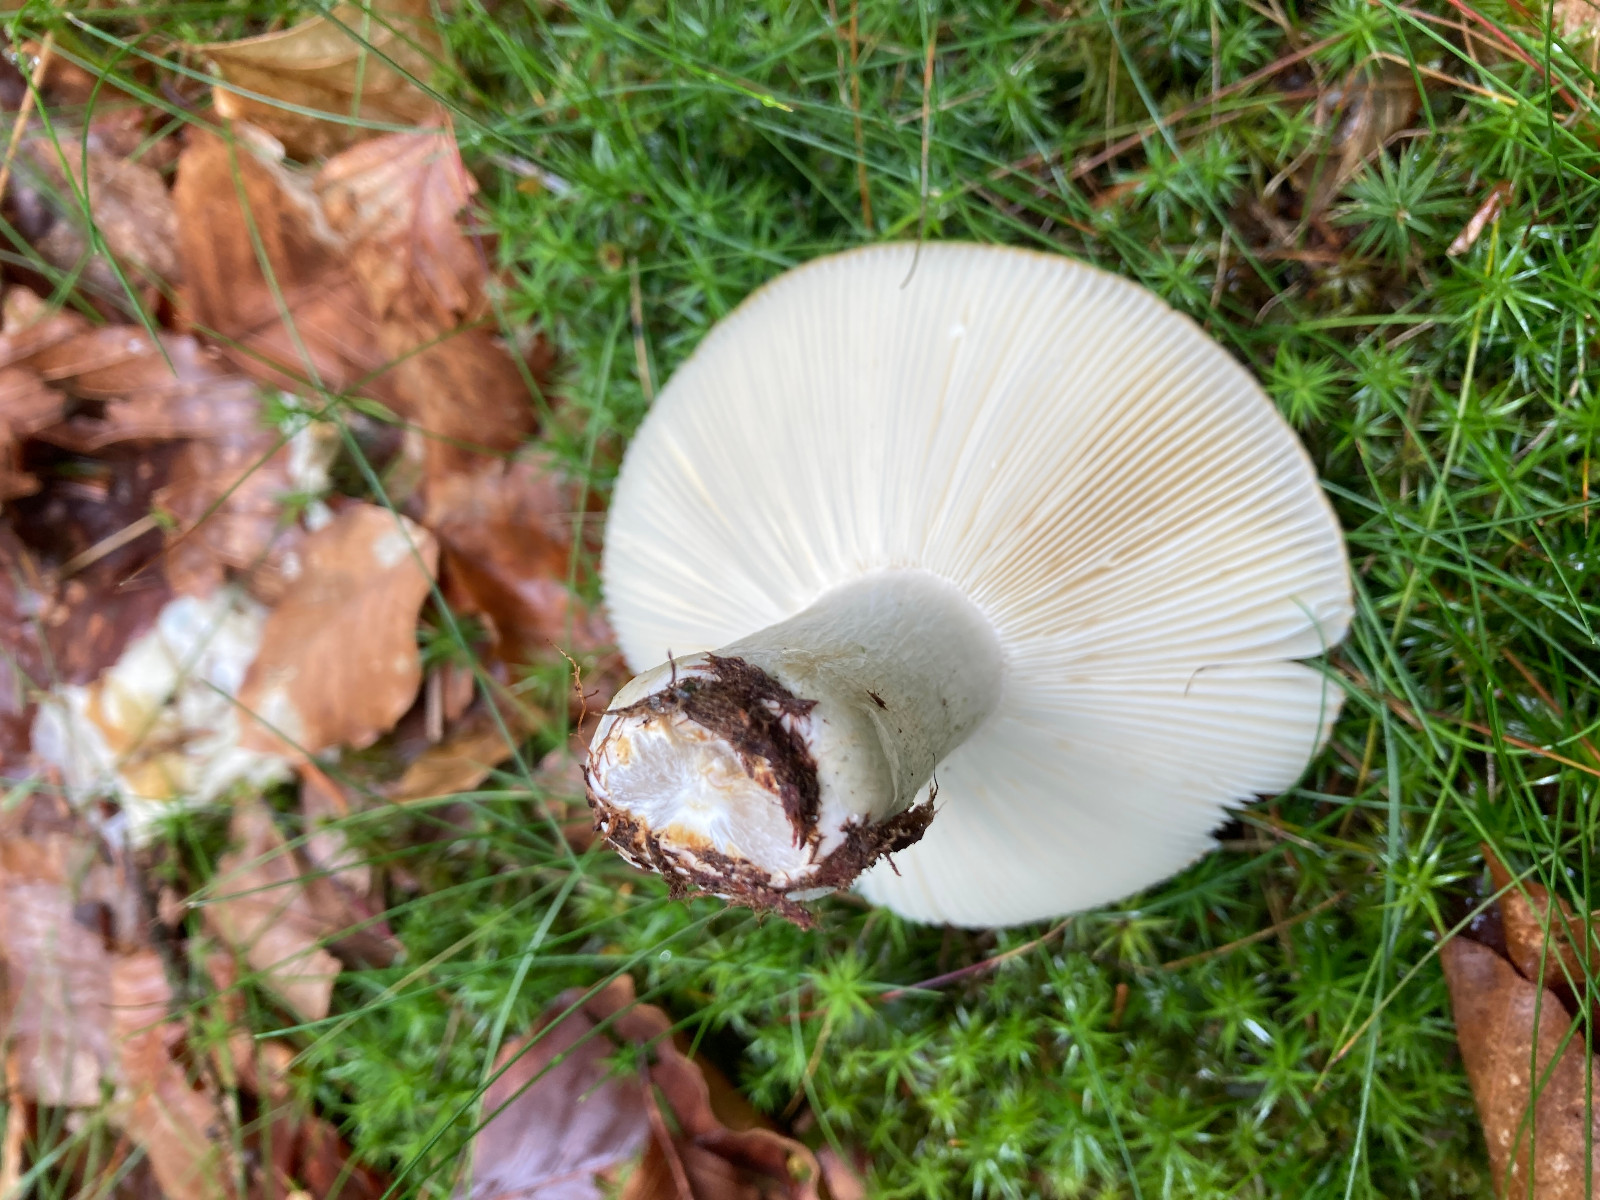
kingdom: Fungi
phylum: Basidiomycota
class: Agaricomycetes
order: Russulales
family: Russulaceae
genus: Russula
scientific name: Russula ochroleuca
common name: okkergul skørhat
